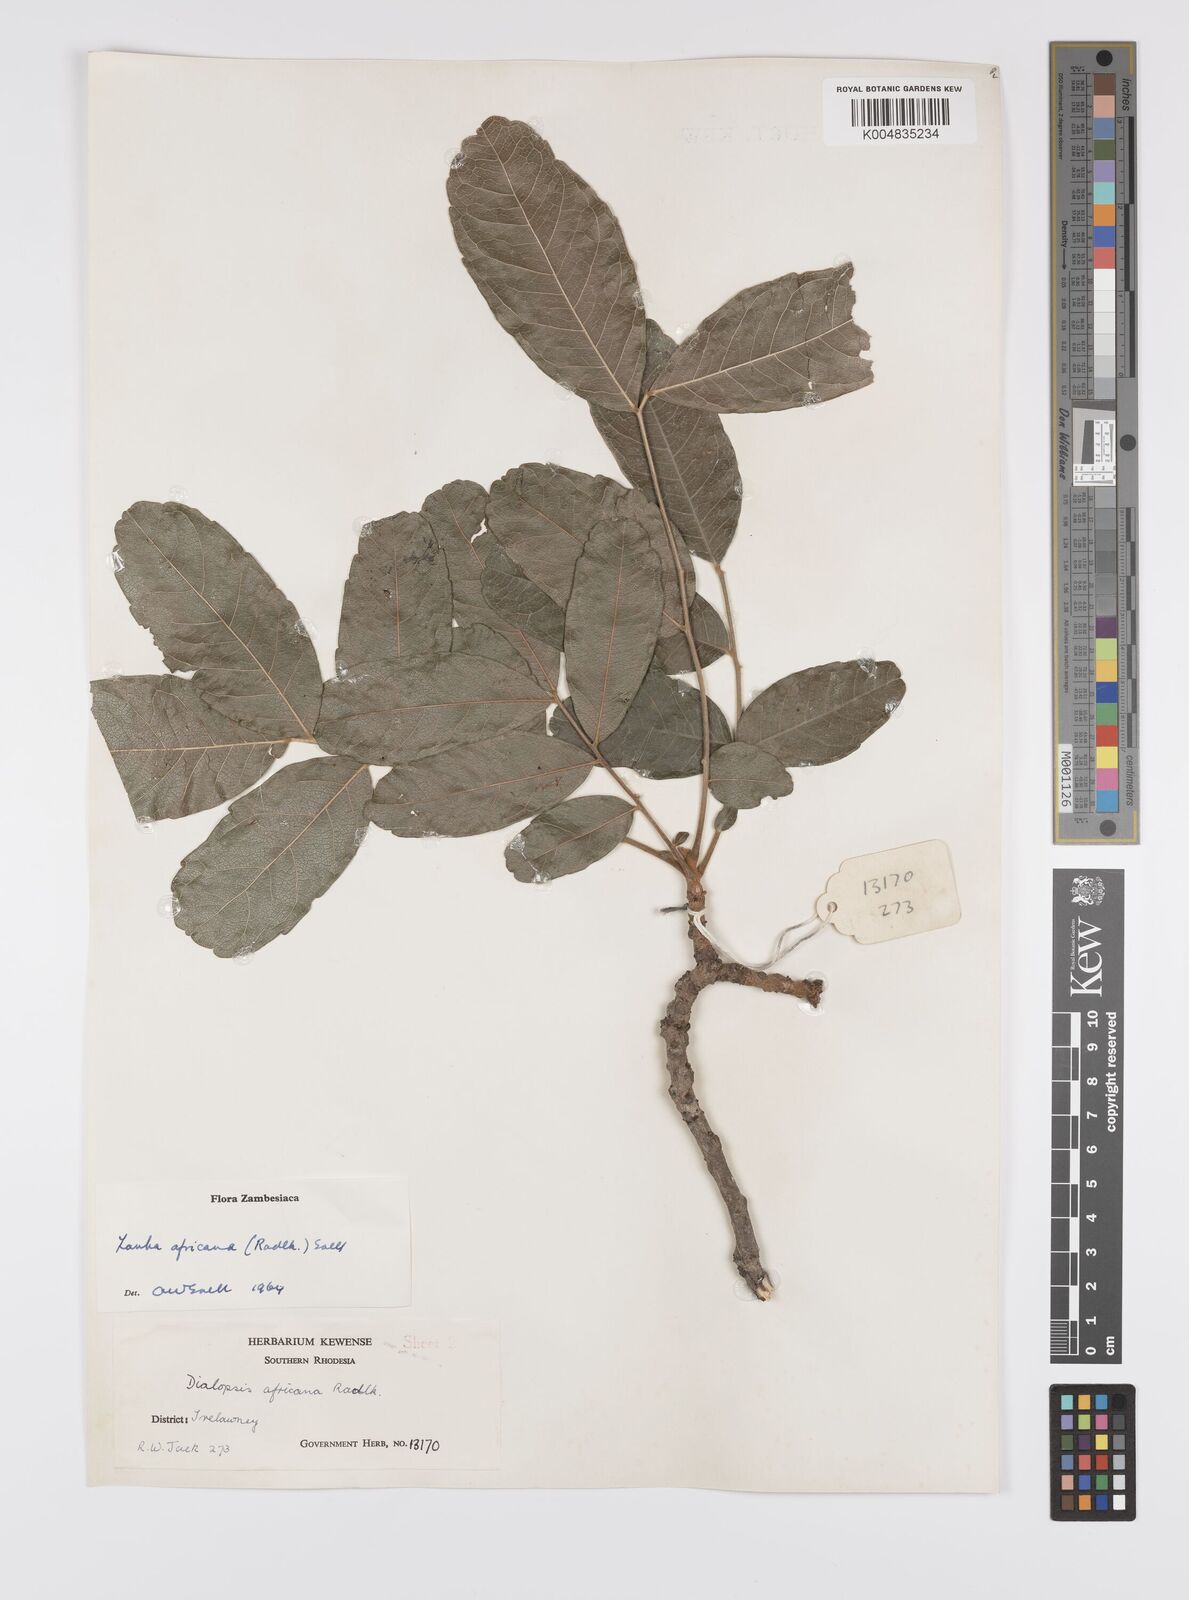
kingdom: Plantae
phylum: Tracheophyta
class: Magnoliopsida
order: Sapindales
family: Sapindaceae
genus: Zanha
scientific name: Zanha africana
